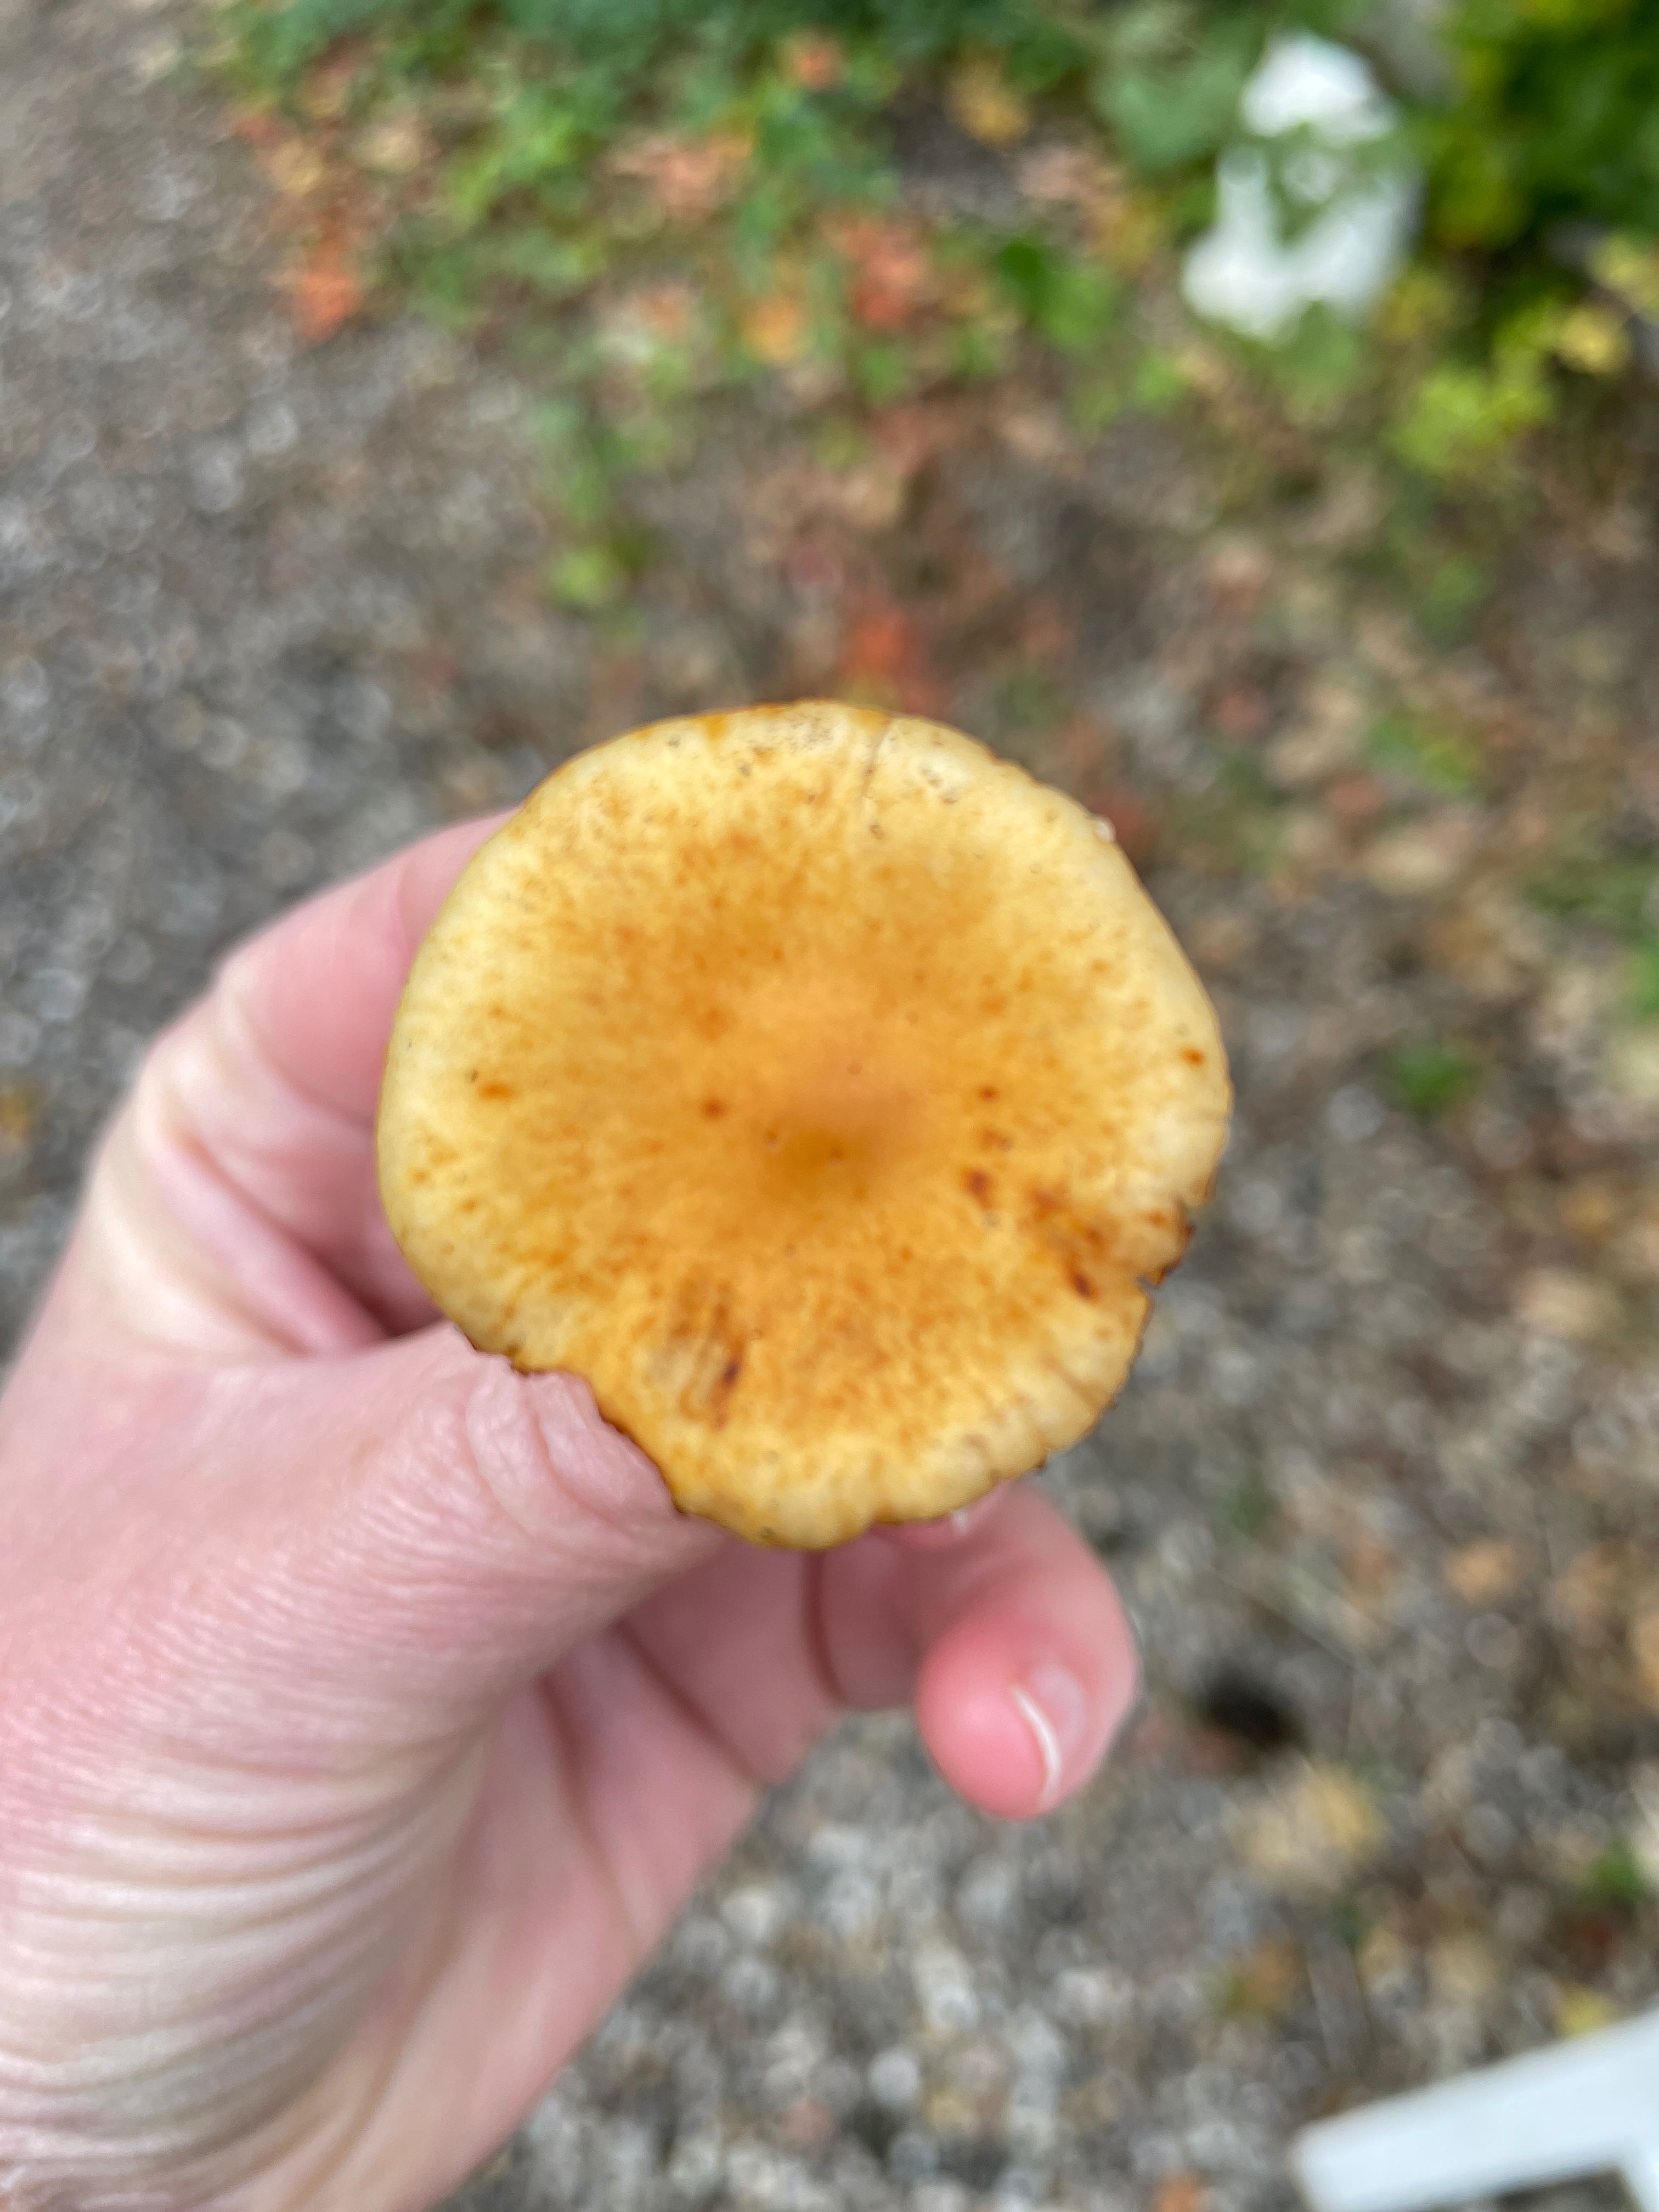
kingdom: Fungi
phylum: Basidiomycota
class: Agaricomycetes
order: Agaricales
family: Hymenogastraceae
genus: Gymnopilus
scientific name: Gymnopilus penetrans
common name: plettet flammehat
